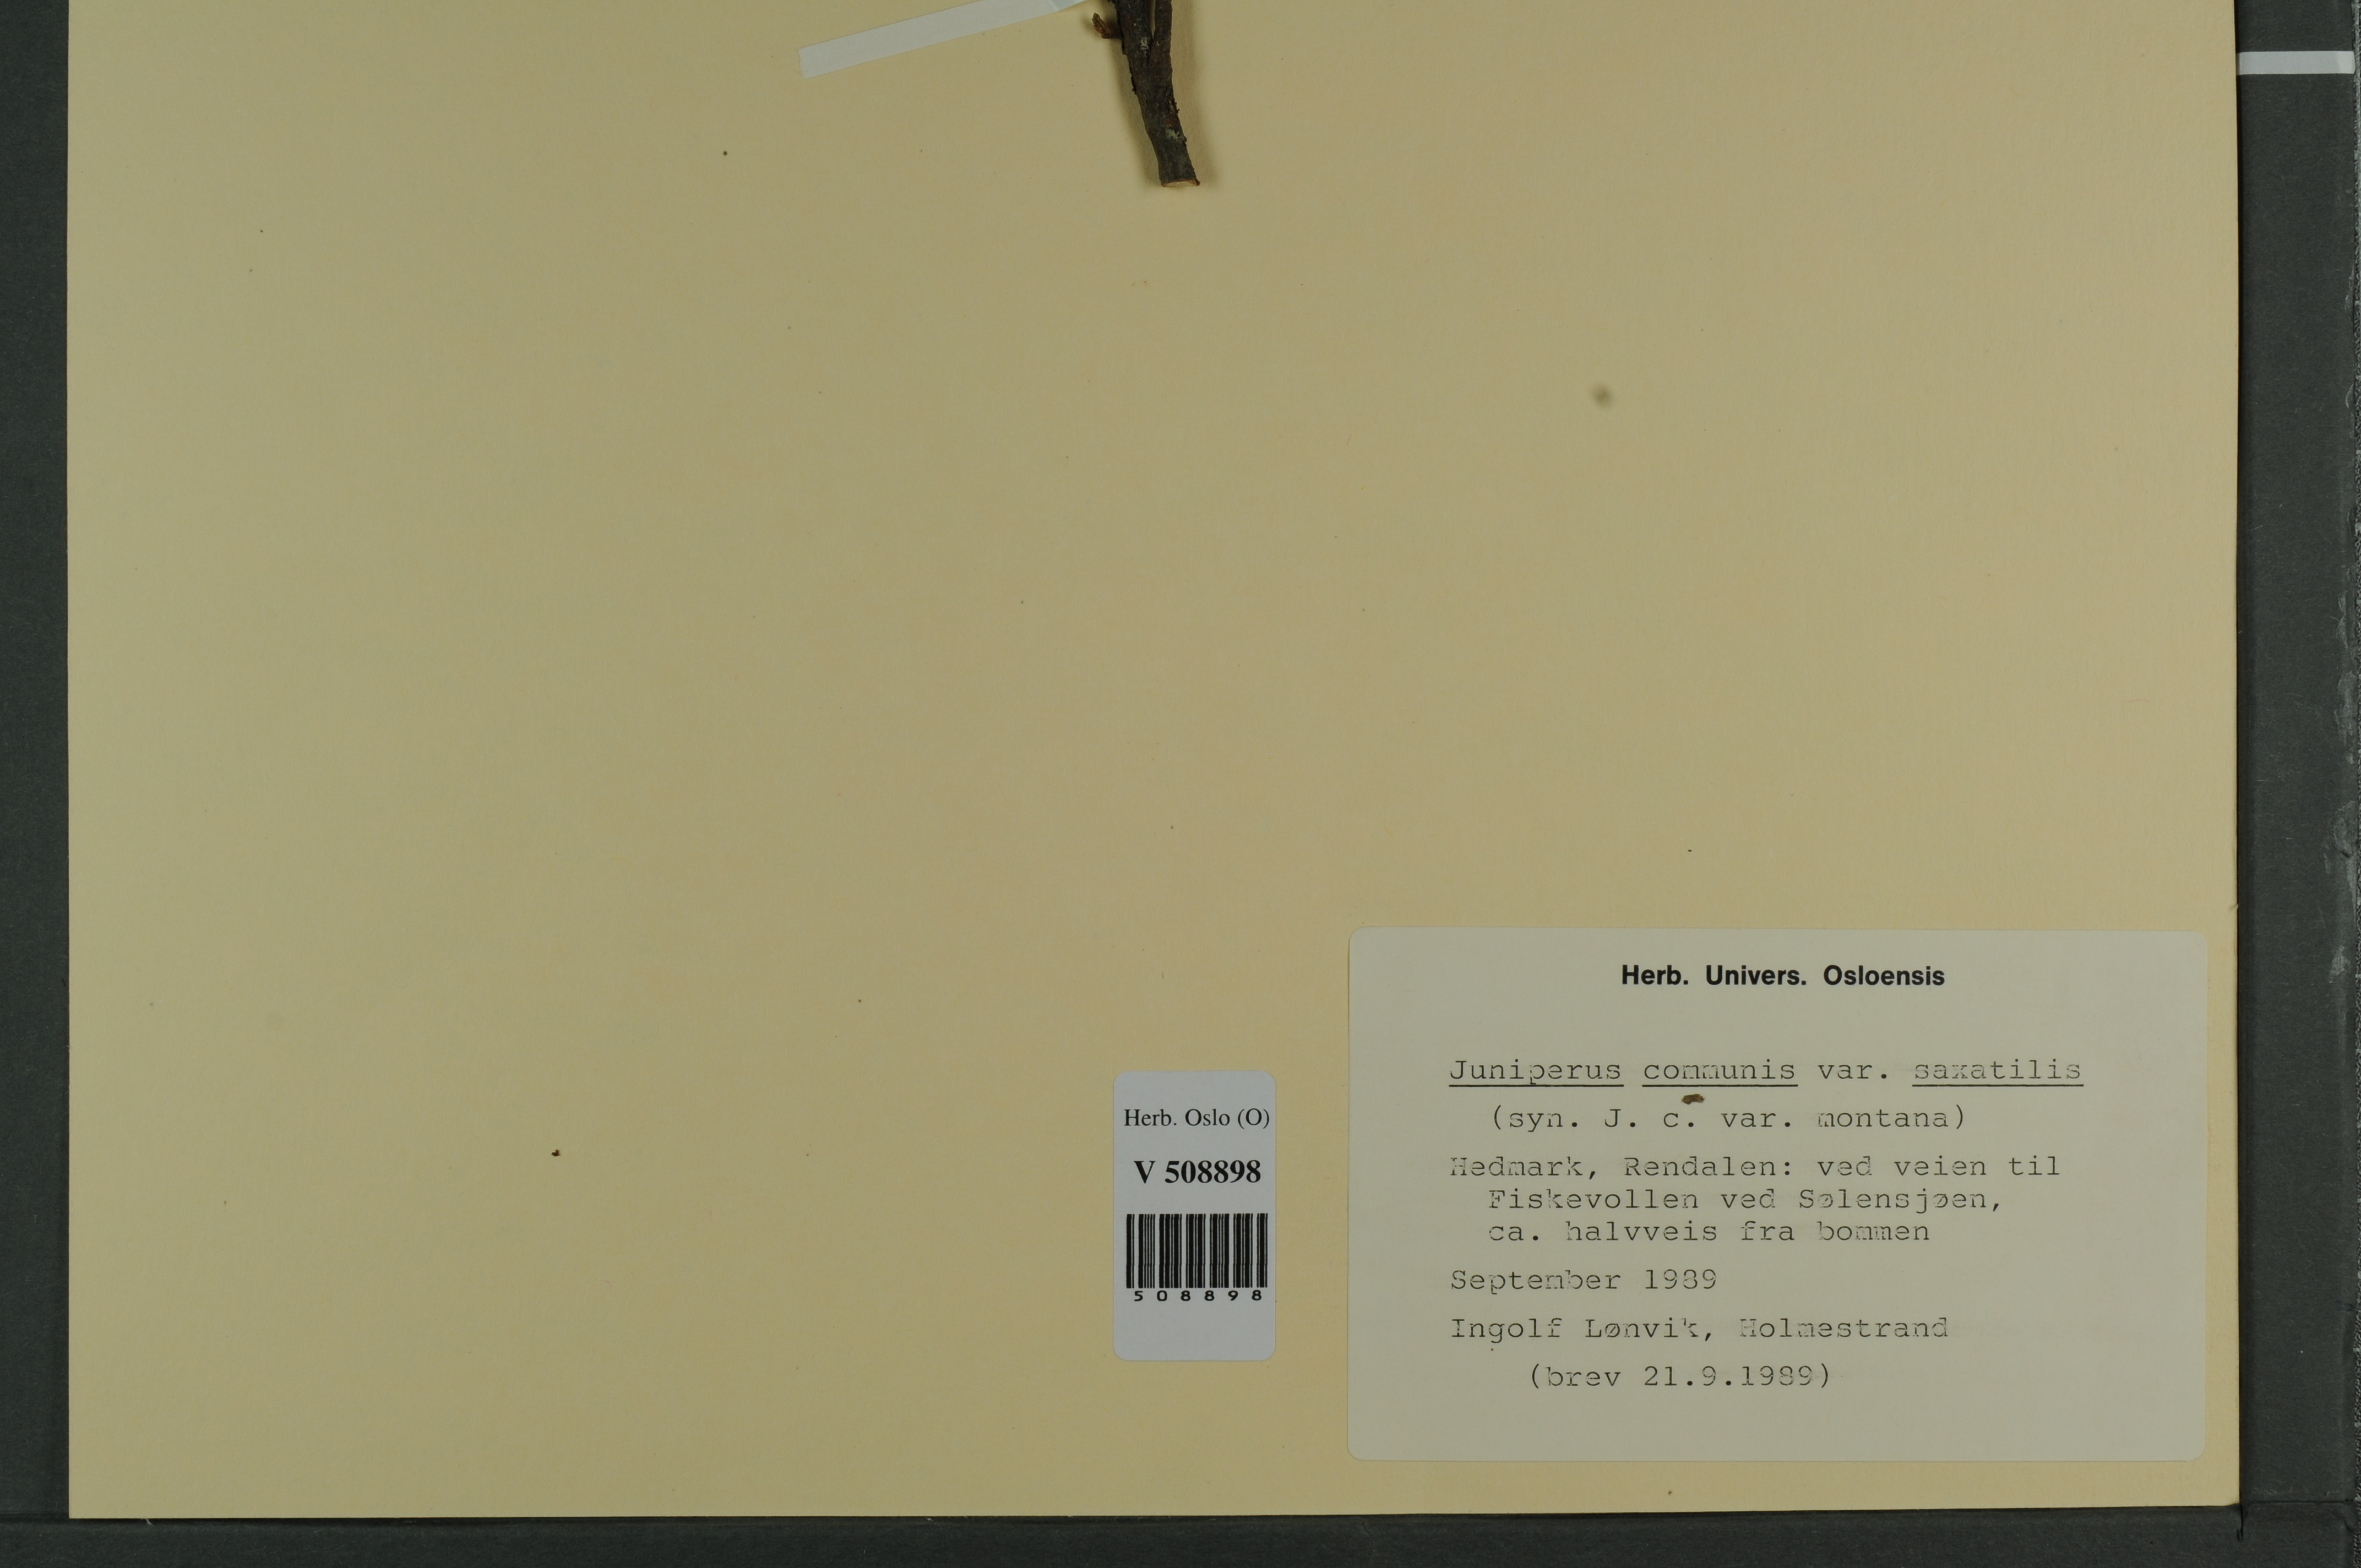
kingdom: Plantae
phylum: Tracheophyta
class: Pinopsida
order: Pinales
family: Cupressaceae
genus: Juniperus
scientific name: Juniperus communis
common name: Common juniper
